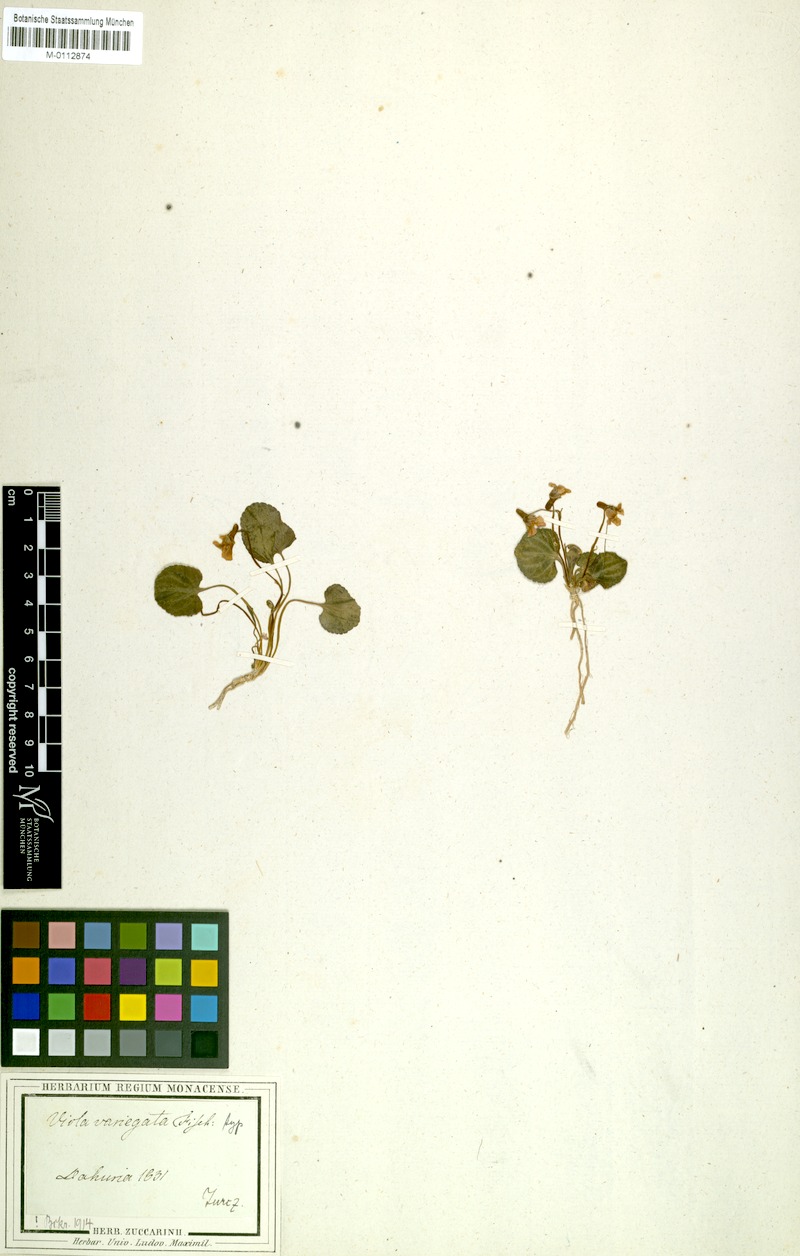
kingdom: Plantae
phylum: Tracheophyta
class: Magnoliopsida
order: Malpighiales
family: Violaceae
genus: Viola
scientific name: Viola variegata
